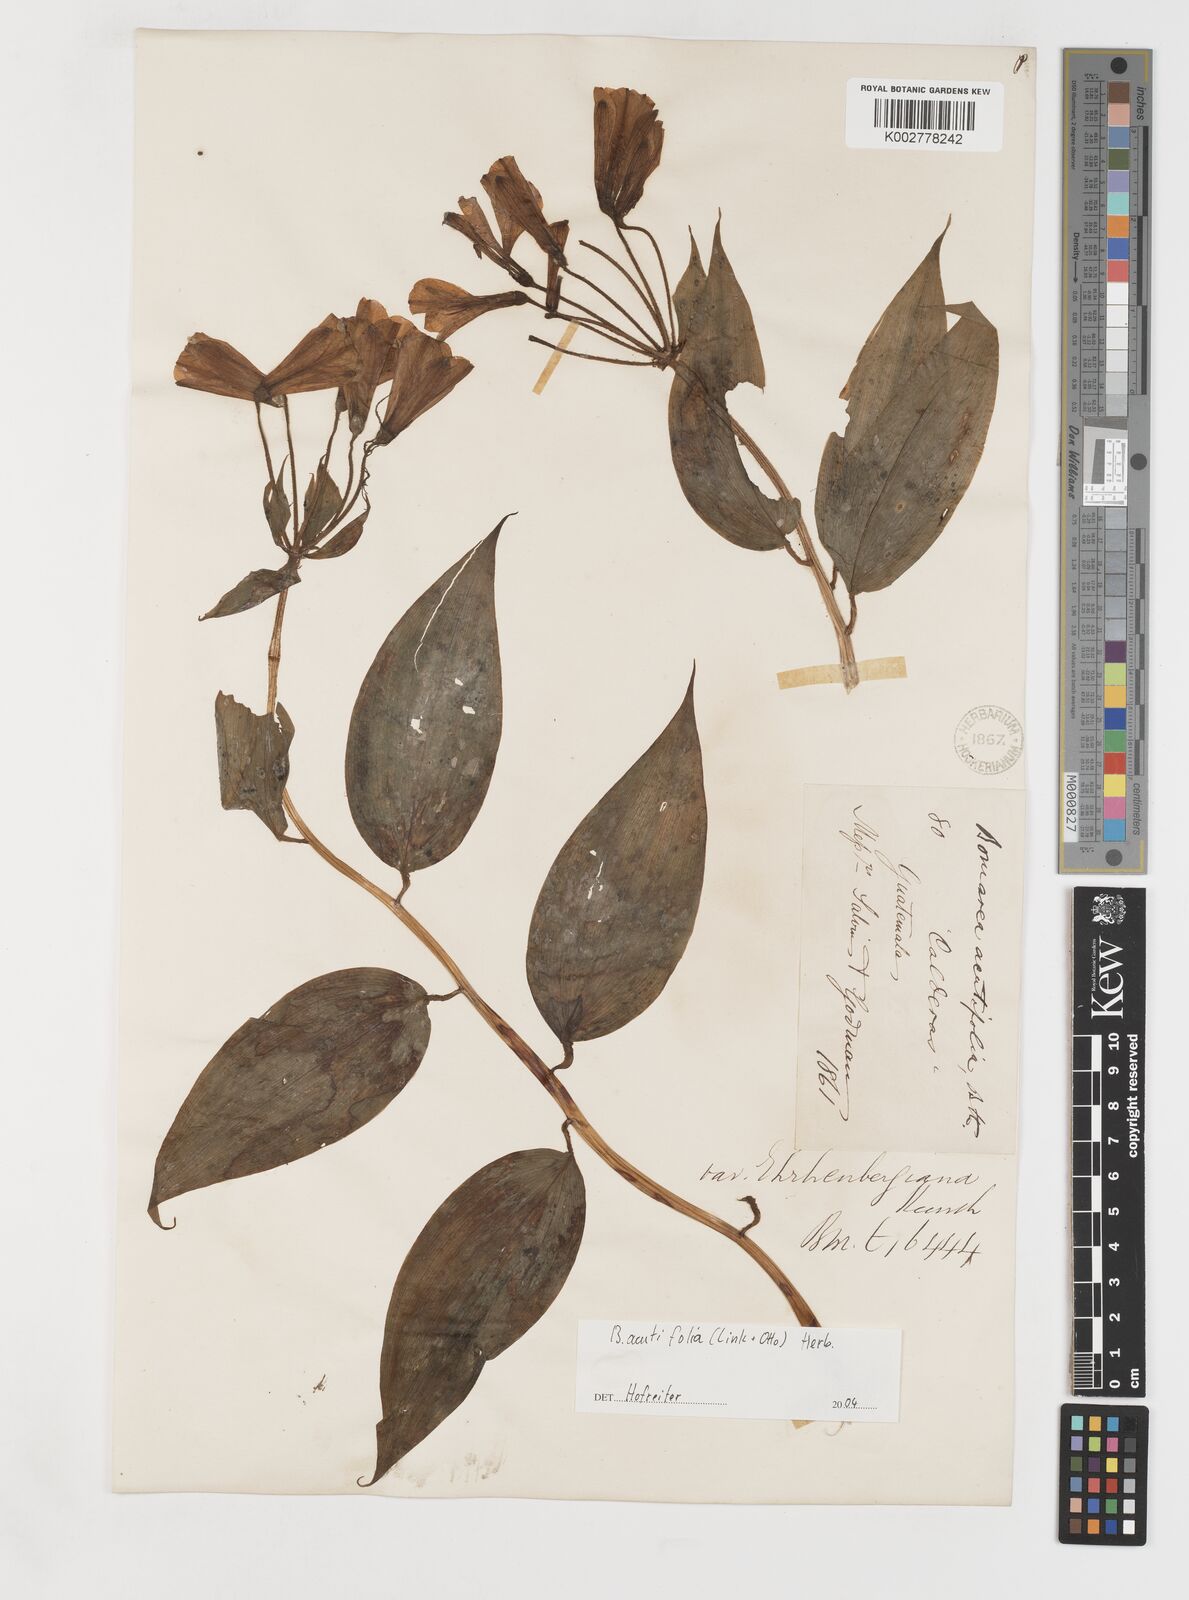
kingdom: Plantae
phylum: Tracheophyta
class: Liliopsida
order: Liliales
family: Alstroemeriaceae
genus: Bomarea
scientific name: Bomarea acutifolia
